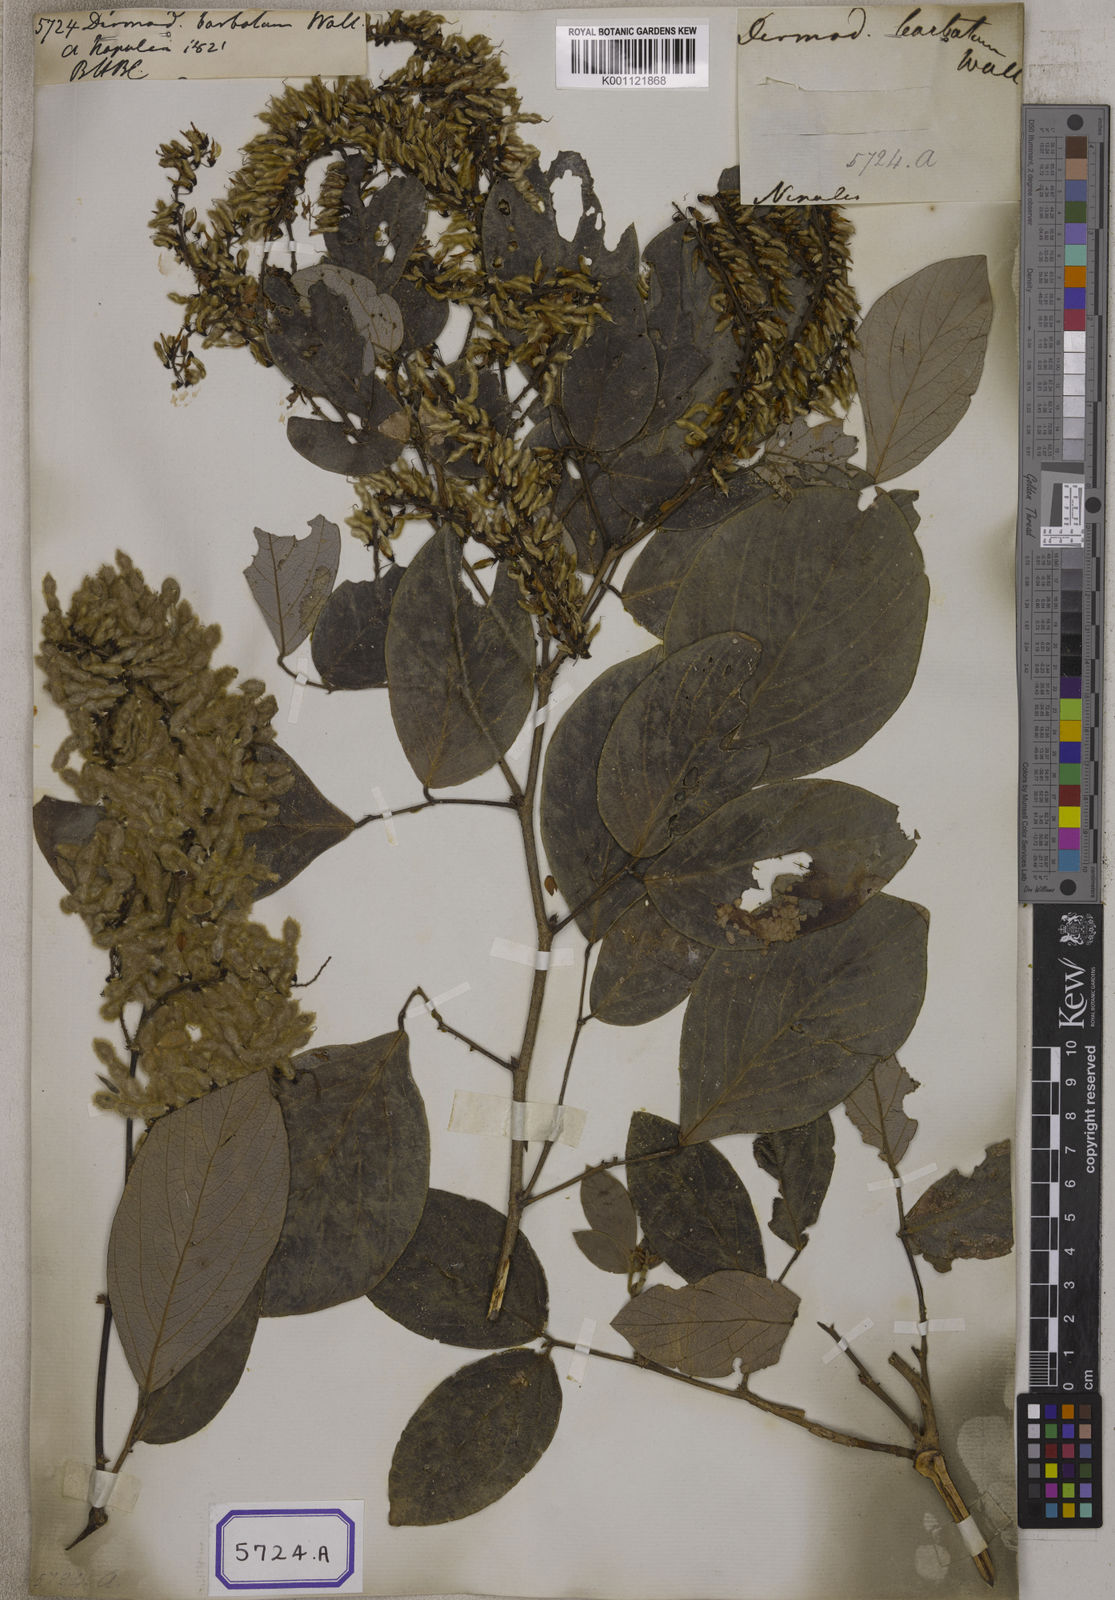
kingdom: Plantae
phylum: Tracheophyta
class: Magnoliopsida
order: Fabales
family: Fabaceae
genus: Desmodium
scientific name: Desmodium
